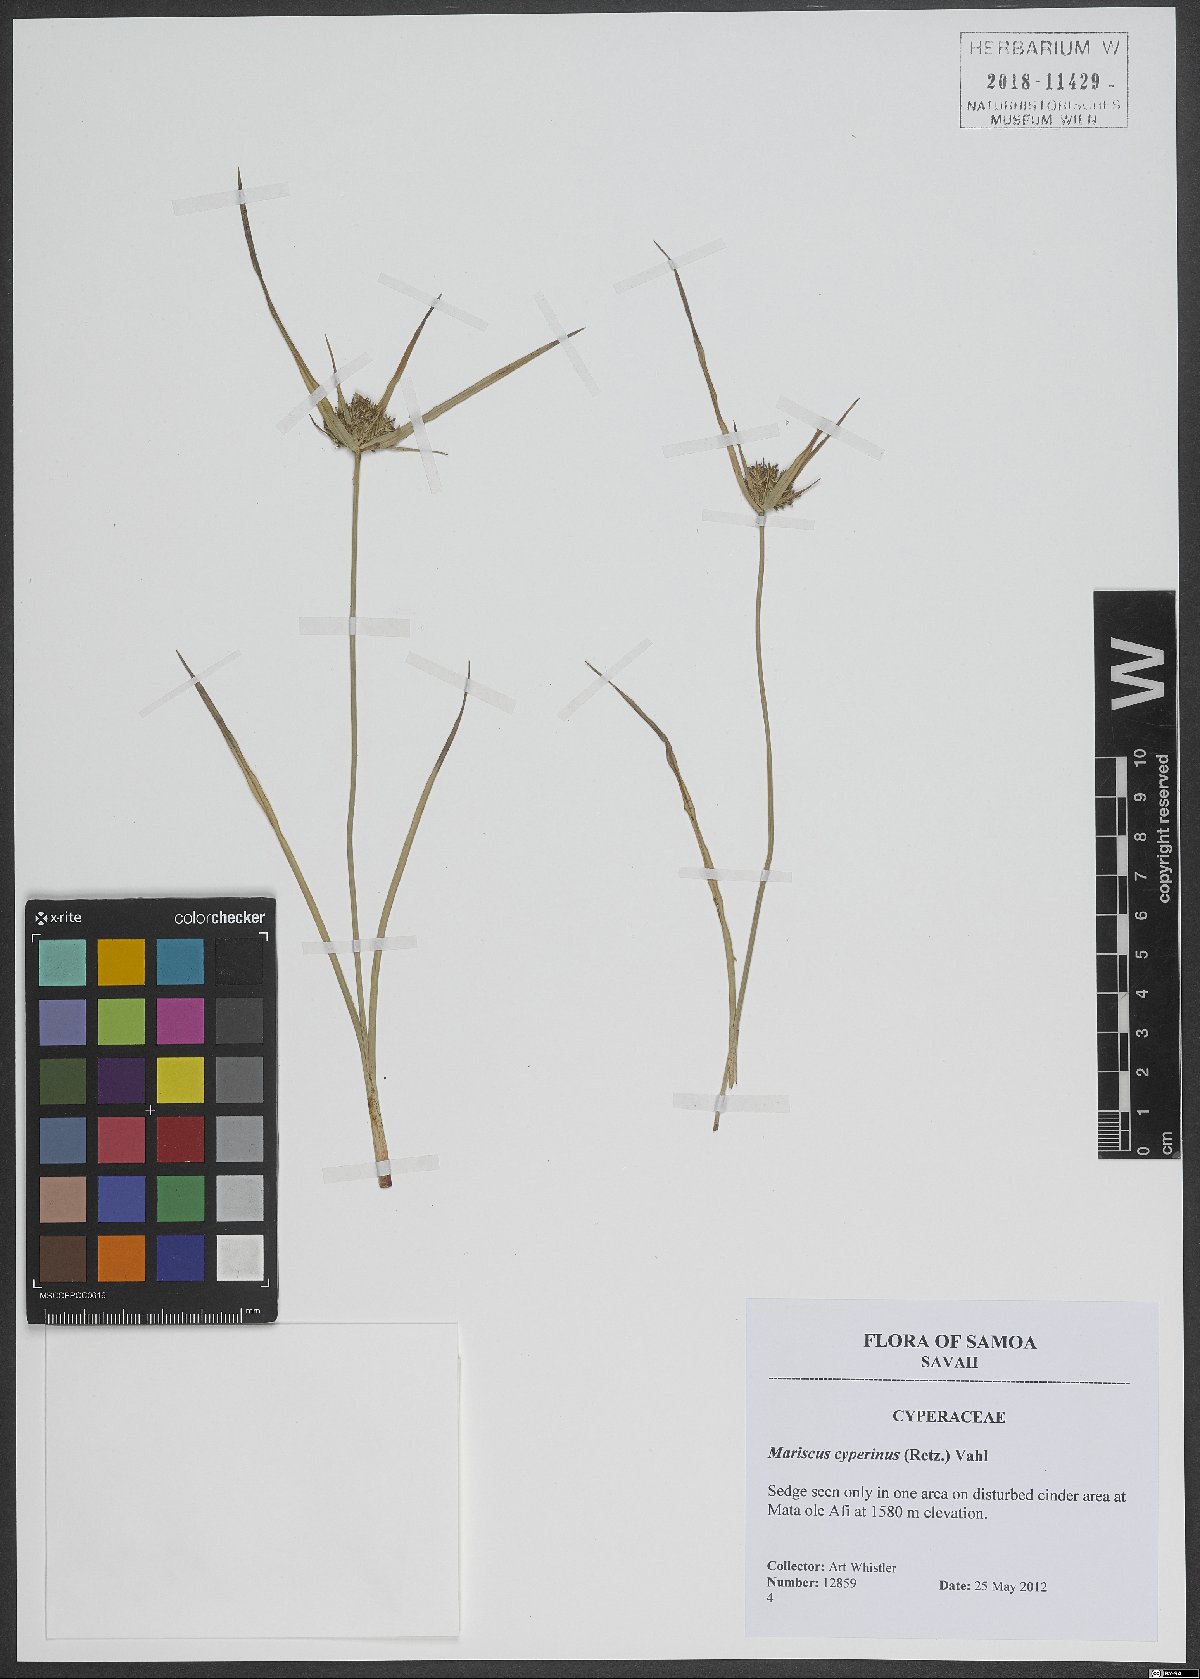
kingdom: Plantae
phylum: Tracheophyta
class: Liliopsida
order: Poales
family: Cyperaceae
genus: Cyperus
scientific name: Cyperus cyperinus
